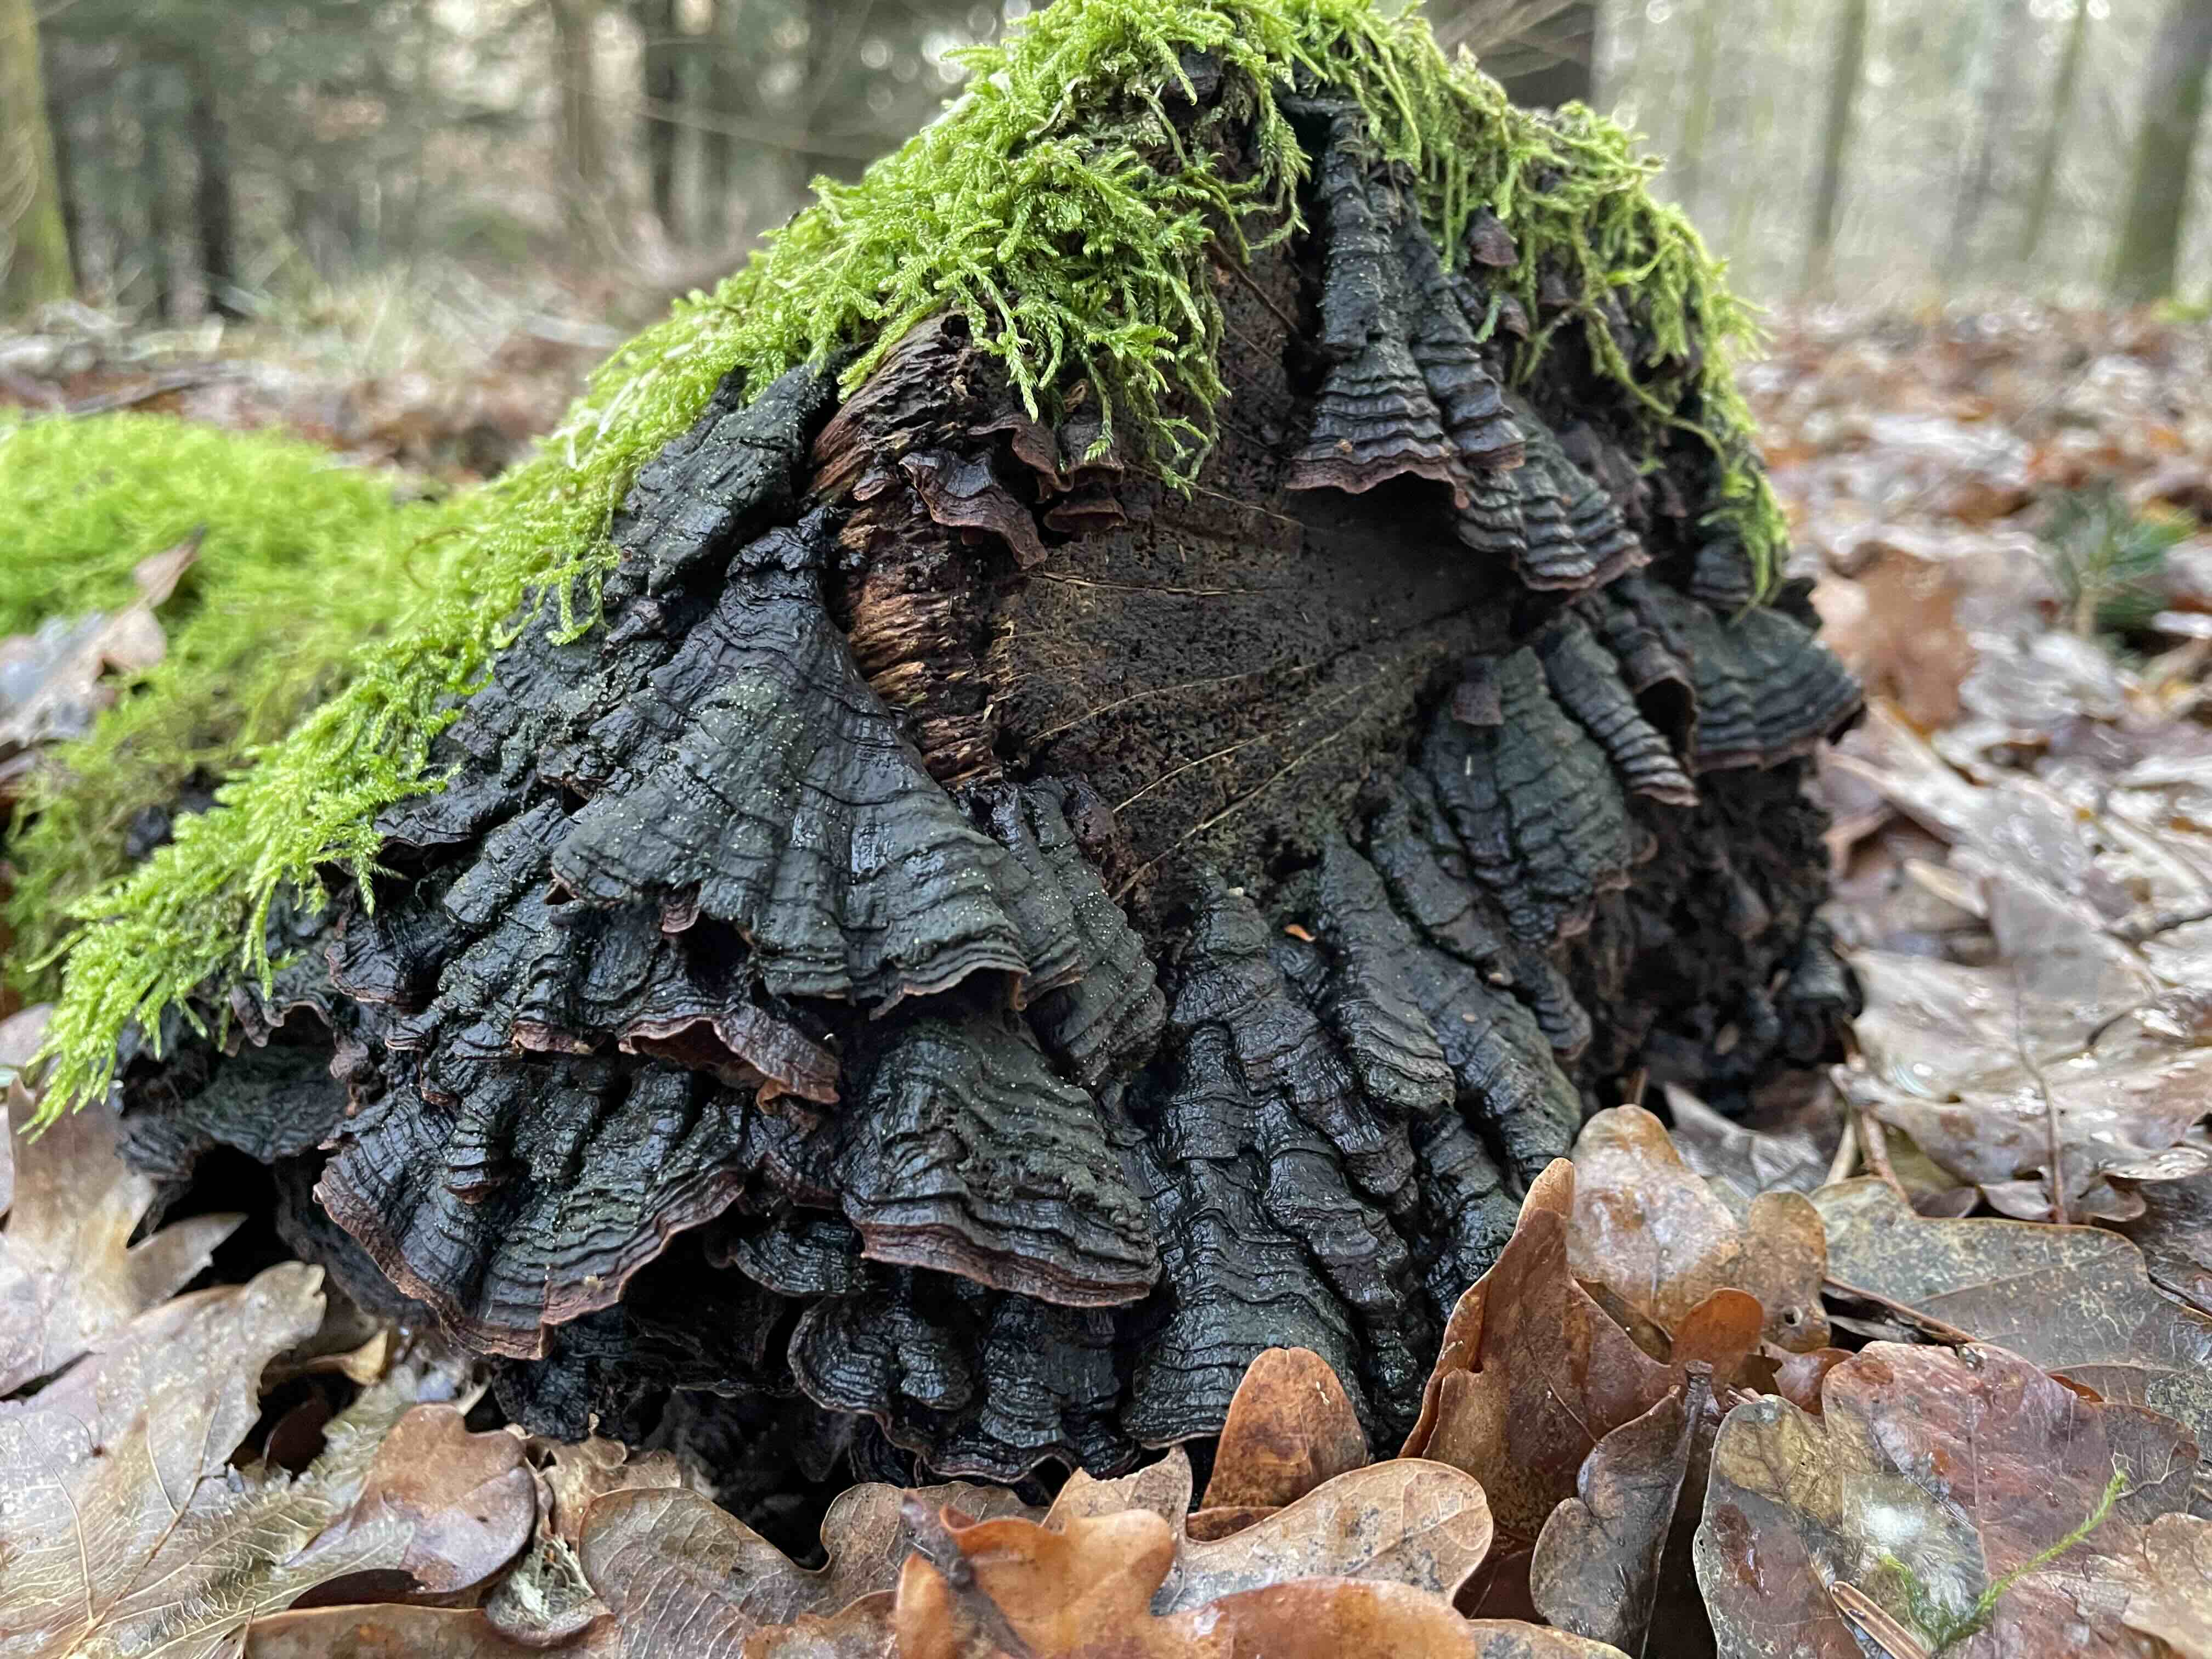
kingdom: Fungi
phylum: Basidiomycota
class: Agaricomycetes
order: Hymenochaetales
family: Hymenochaetaceae
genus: Hymenochaete
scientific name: Hymenochaete rubiginosa
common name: stiv ruslædersvamp
